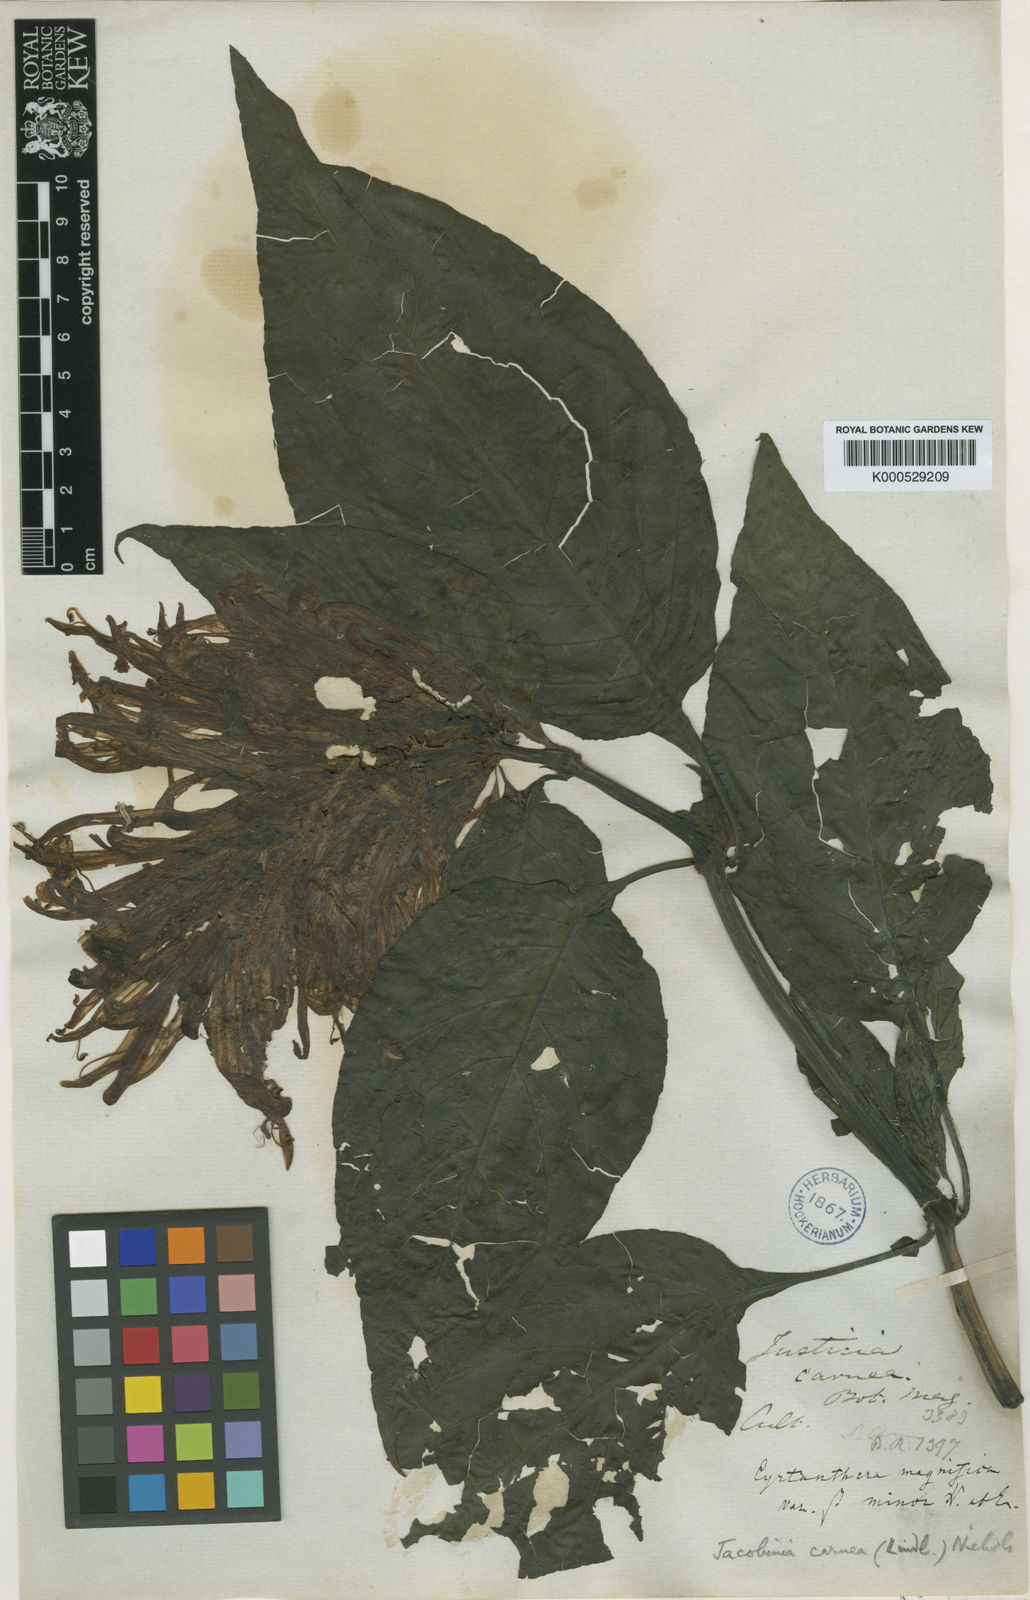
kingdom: Plantae
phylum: Tracheophyta
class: Magnoliopsida
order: Lamiales
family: Acanthaceae
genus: Justicia
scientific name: Justicia carnea
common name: Brazilian-plume
